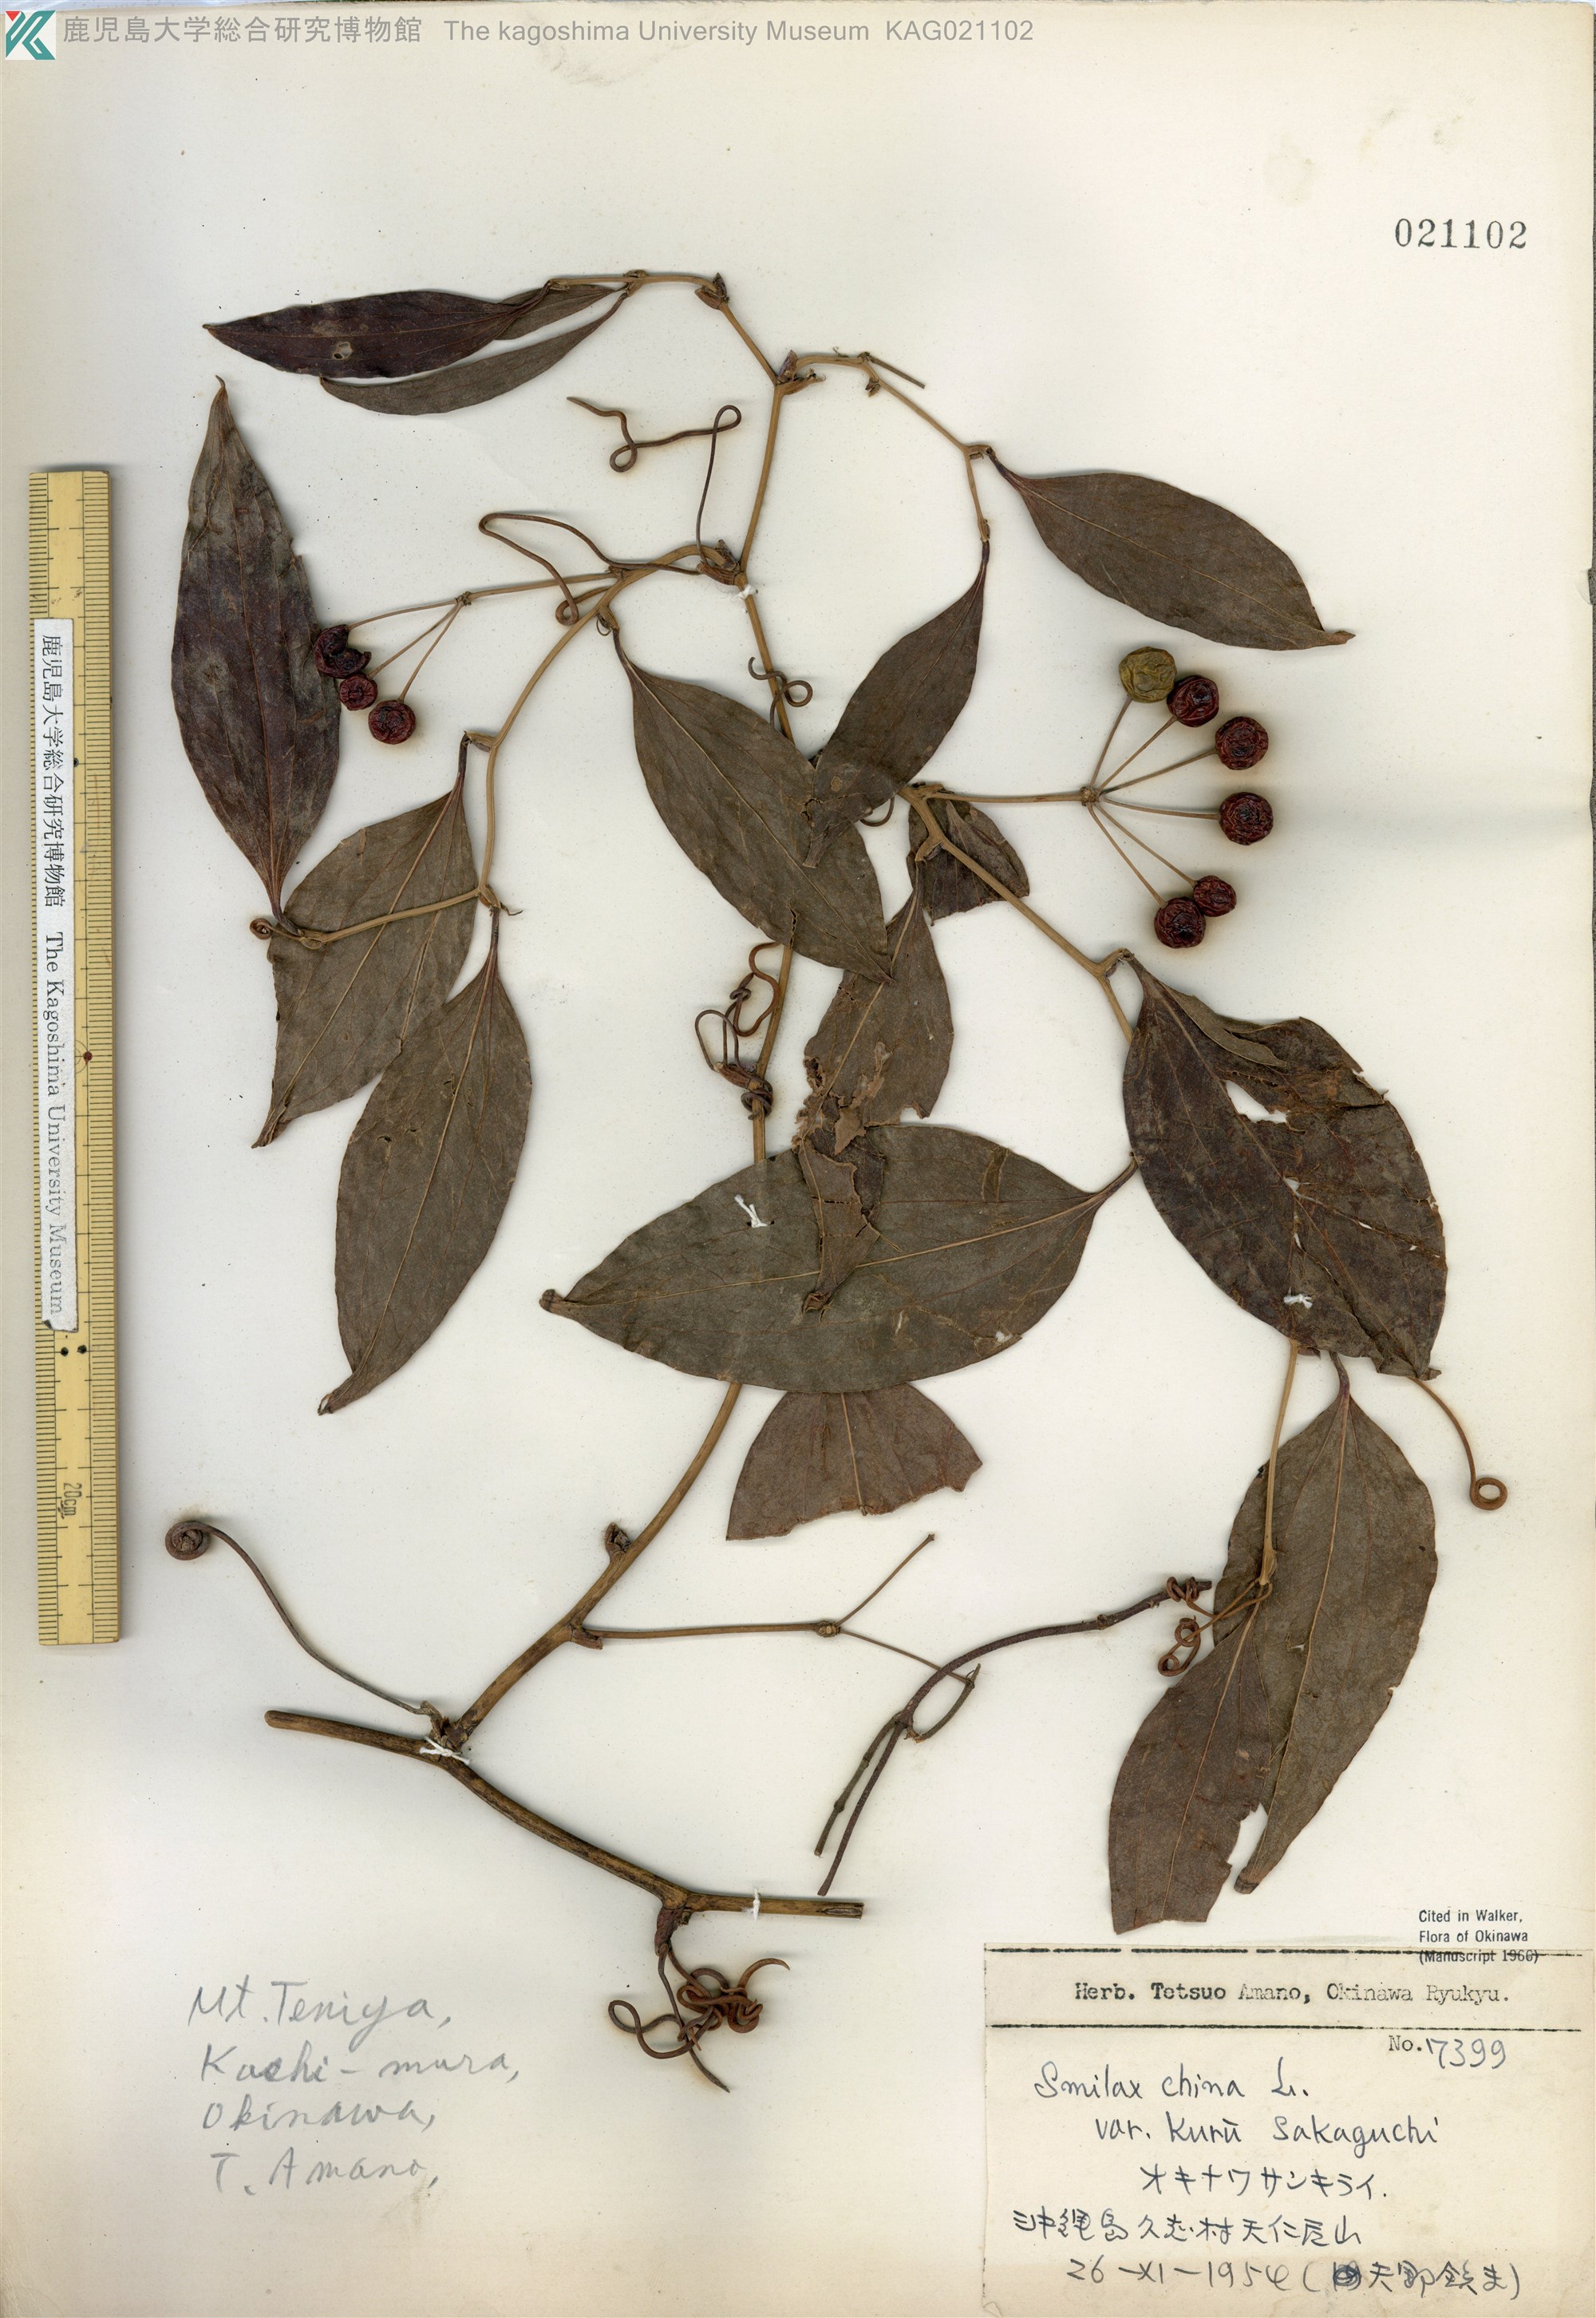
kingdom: Plantae
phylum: Tracheophyta
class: Liliopsida
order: Liliales
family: Smilacaceae
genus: Smilax
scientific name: Smilax china
